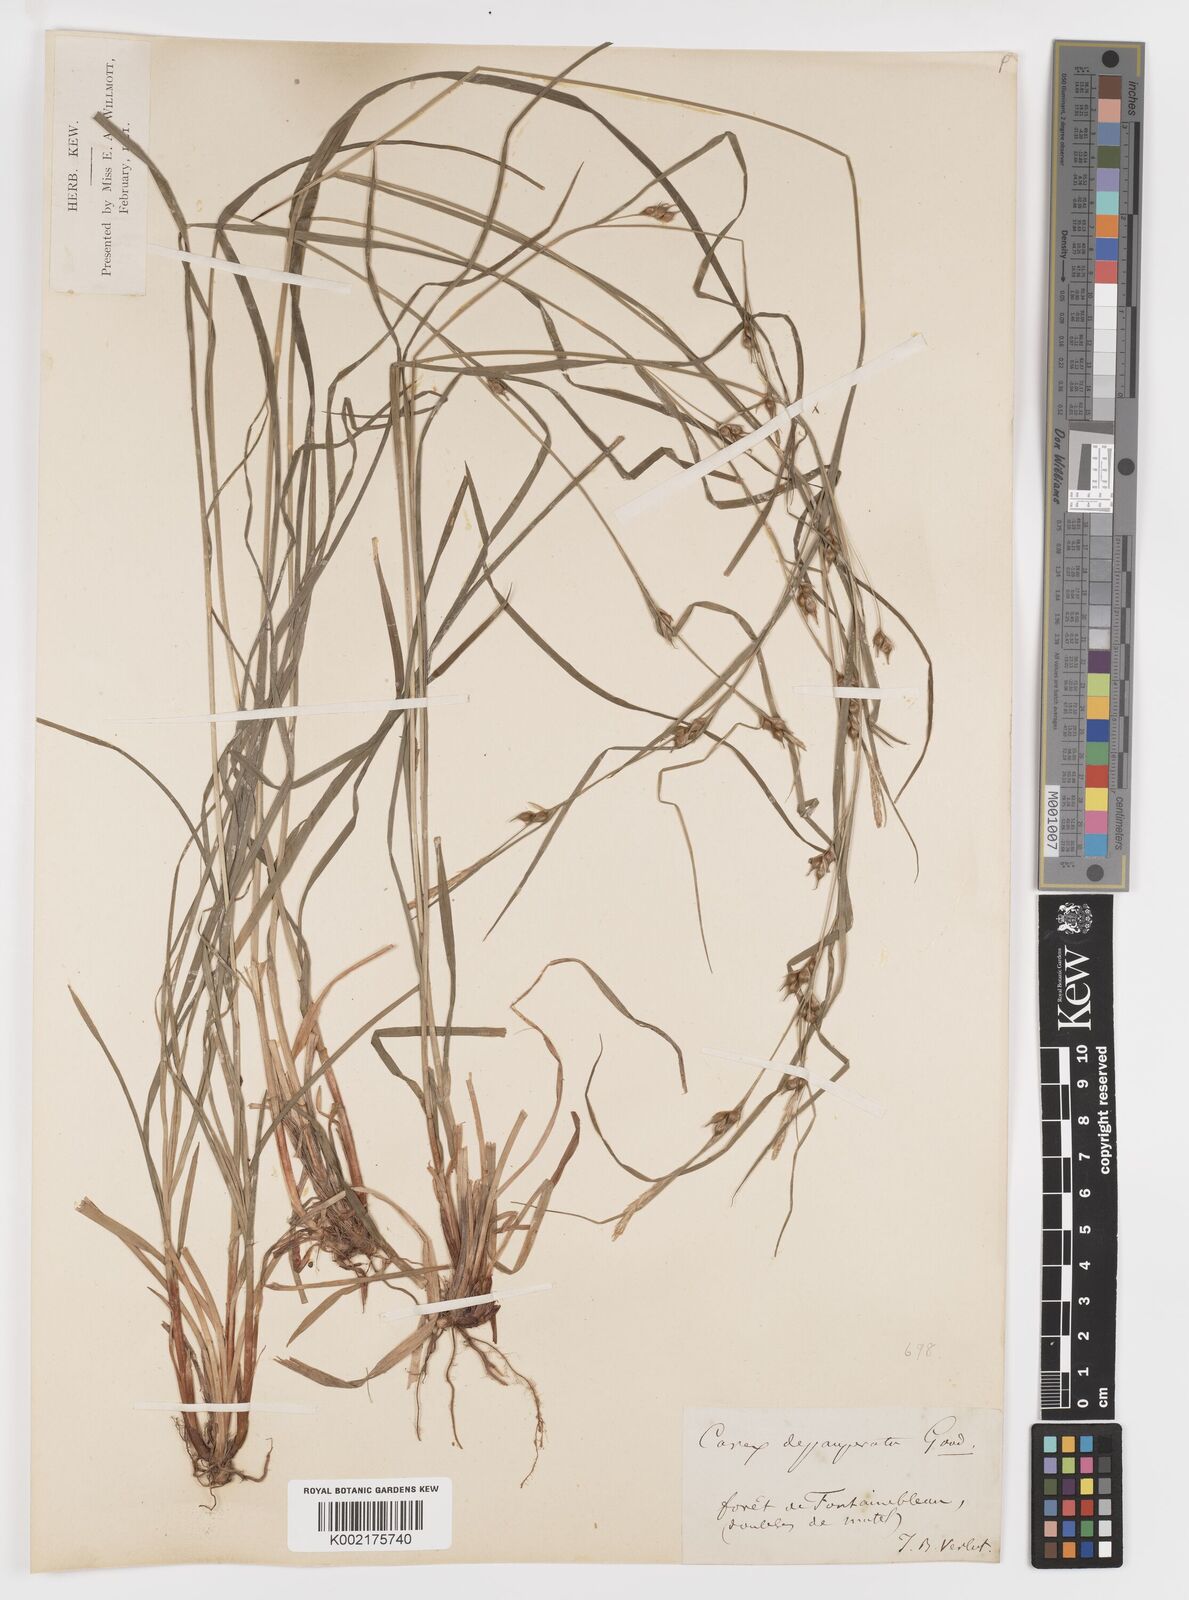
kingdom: Plantae
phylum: Tracheophyta
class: Liliopsida
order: Poales
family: Cyperaceae
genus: Carex
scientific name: Carex
